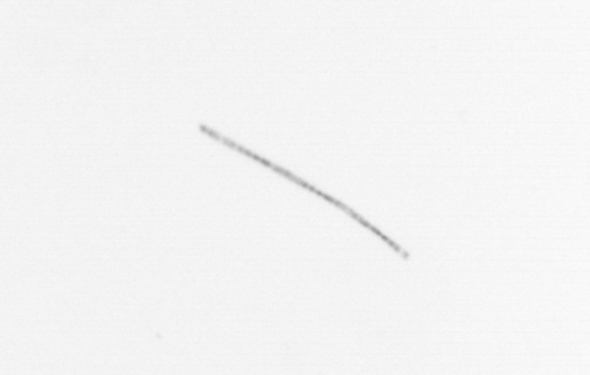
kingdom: Chromista
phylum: Ochrophyta
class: Bacillariophyceae
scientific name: Bacillariophyceae
